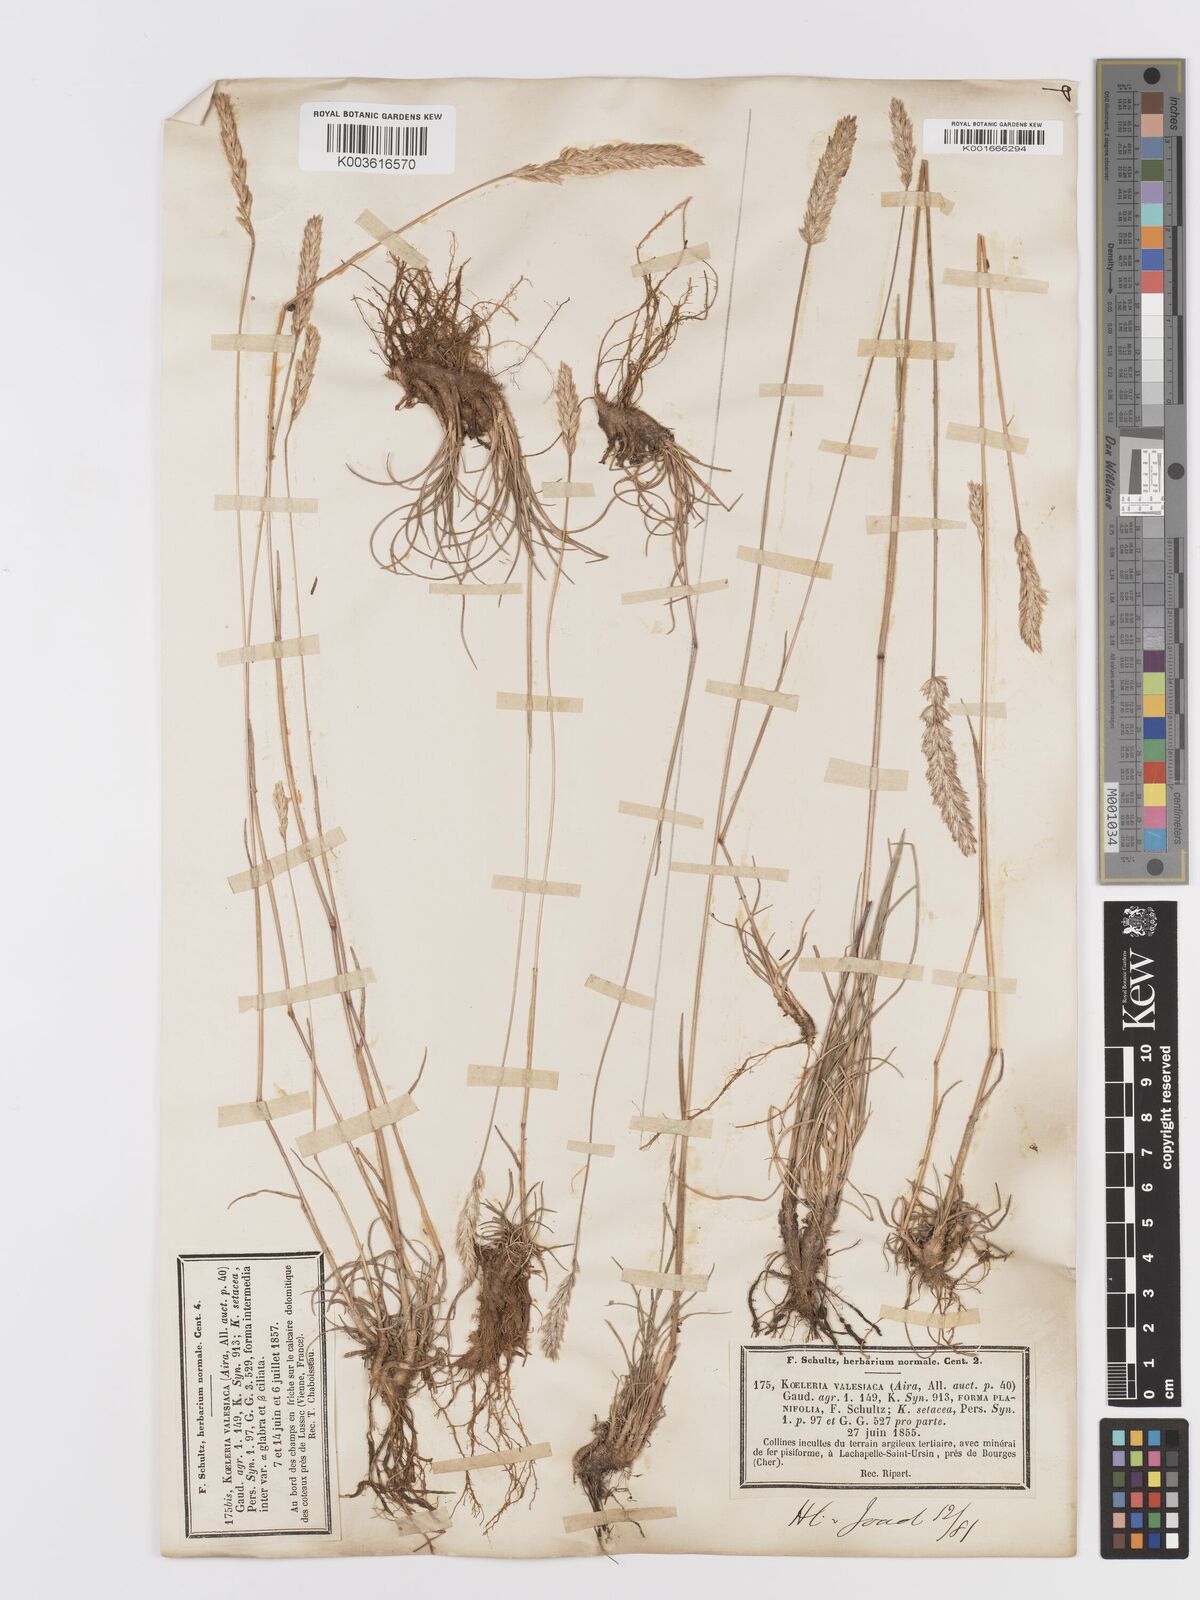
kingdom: Plantae
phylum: Tracheophyta
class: Liliopsida
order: Poales
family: Poaceae
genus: Koeleria
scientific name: Koeleria vallesiana
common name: Somerset hair-grass
